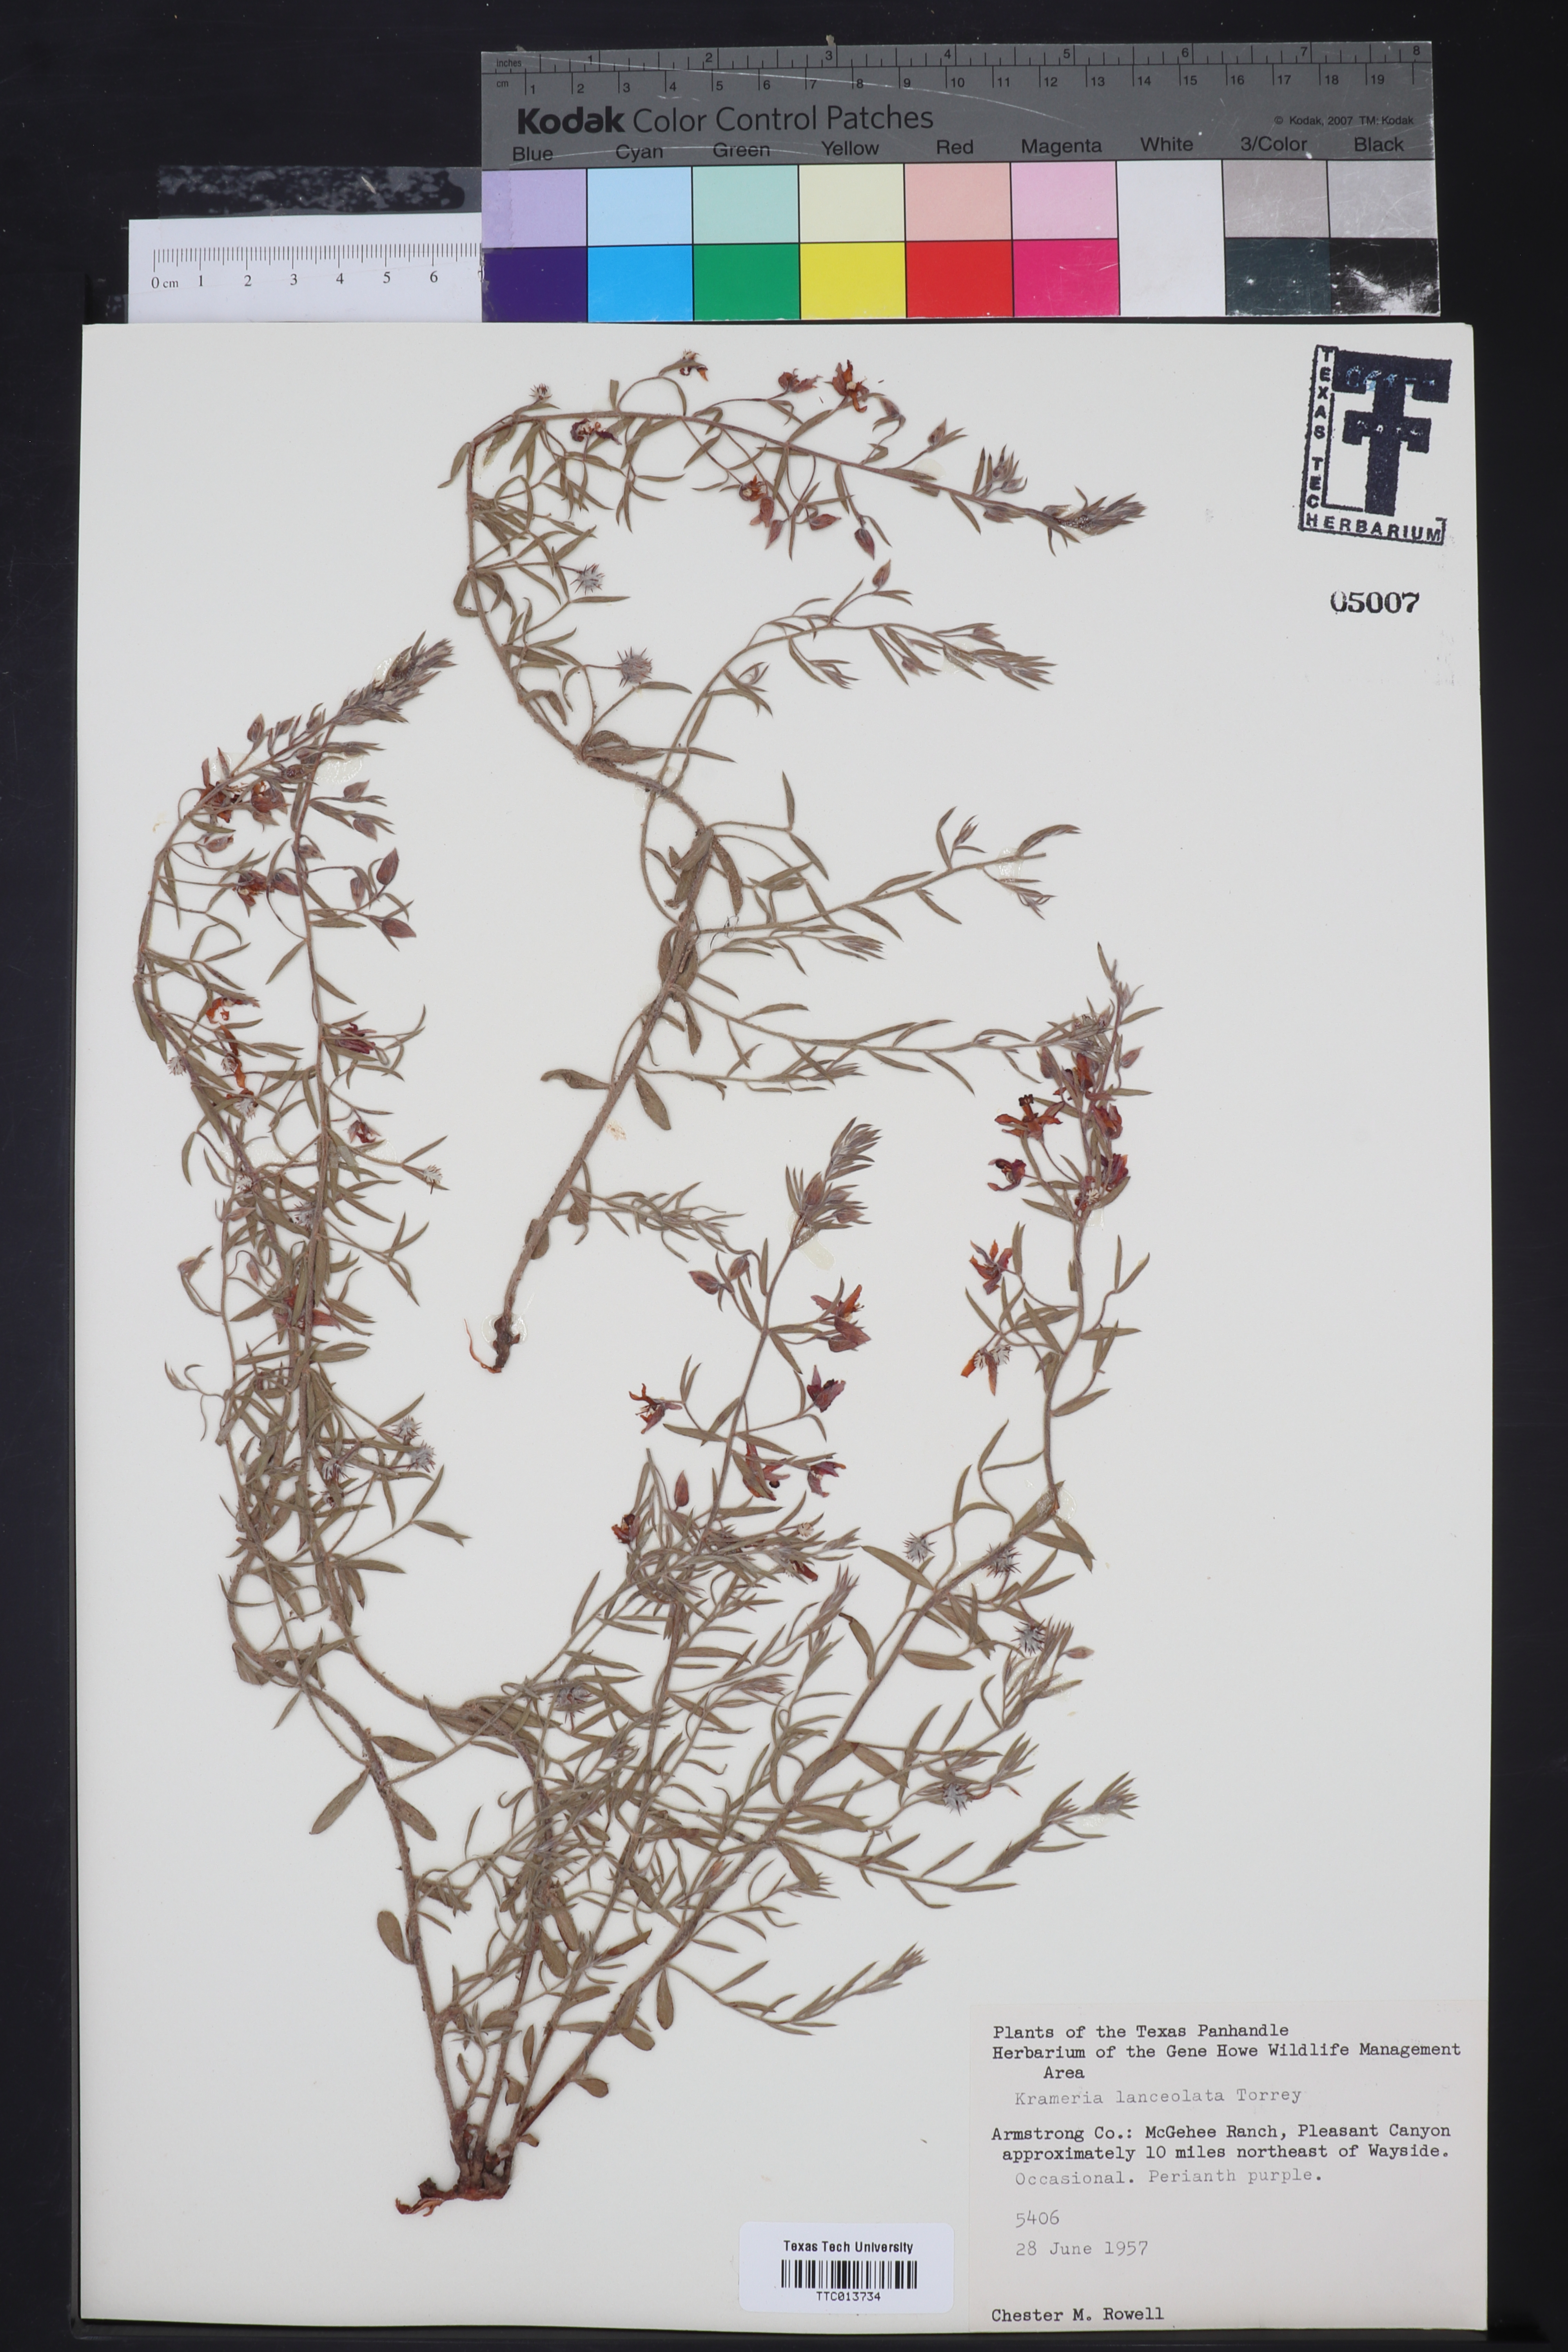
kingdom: Plantae
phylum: Tracheophyta
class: Magnoliopsida
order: Zygophyllales
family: Krameriaceae
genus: Krameria
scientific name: Krameria lanceolata
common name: Ratany
